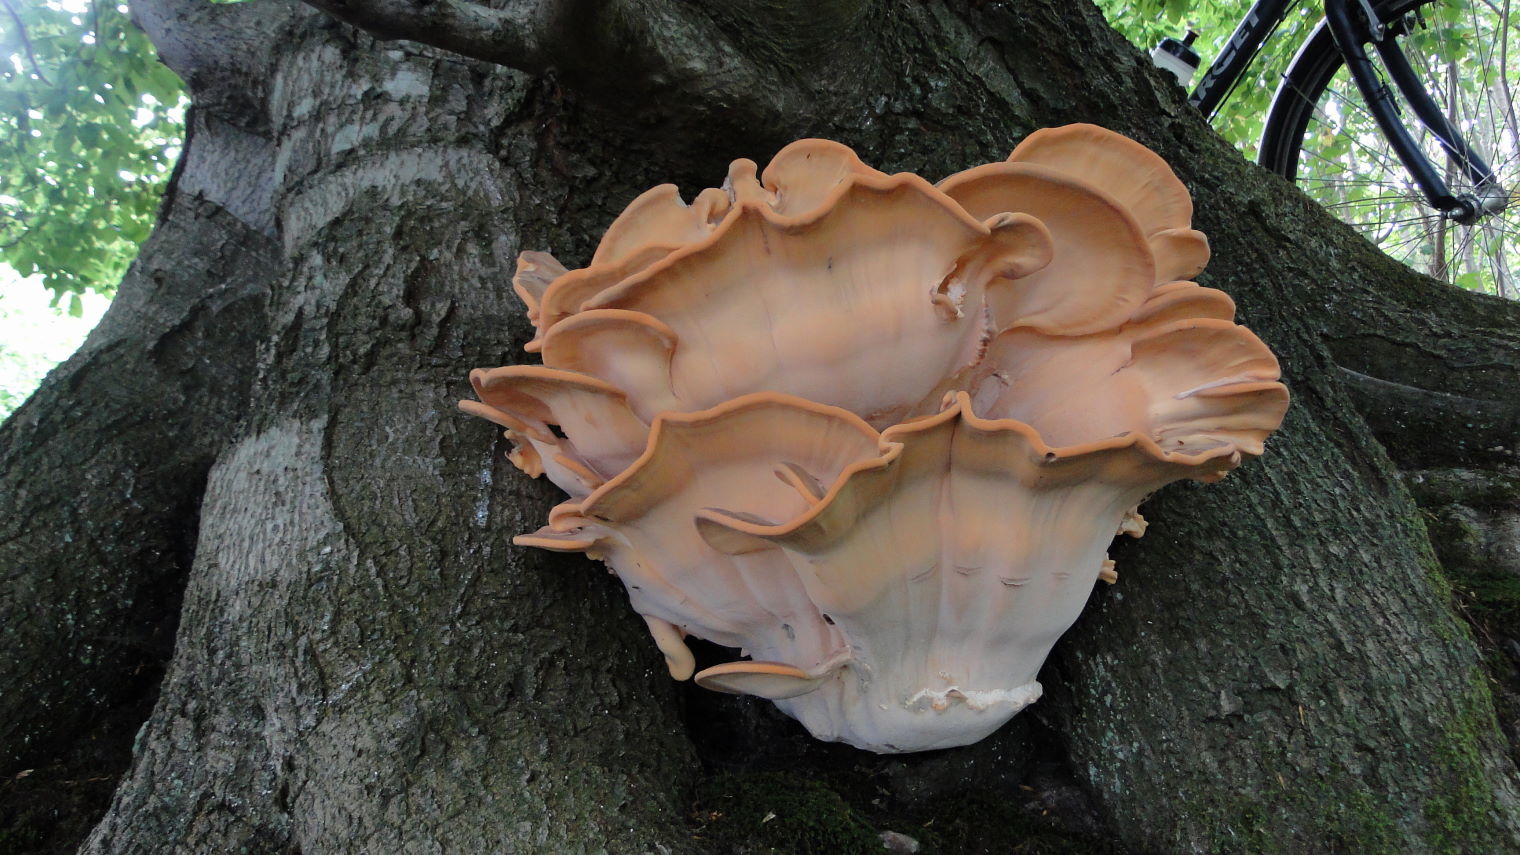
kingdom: Fungi
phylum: Basidiomycota
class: Agaricomycetes
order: Polyporales
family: Meripilaceae
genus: Meripilus
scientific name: Meripilus giganteus
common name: kæmpeporesvamp
